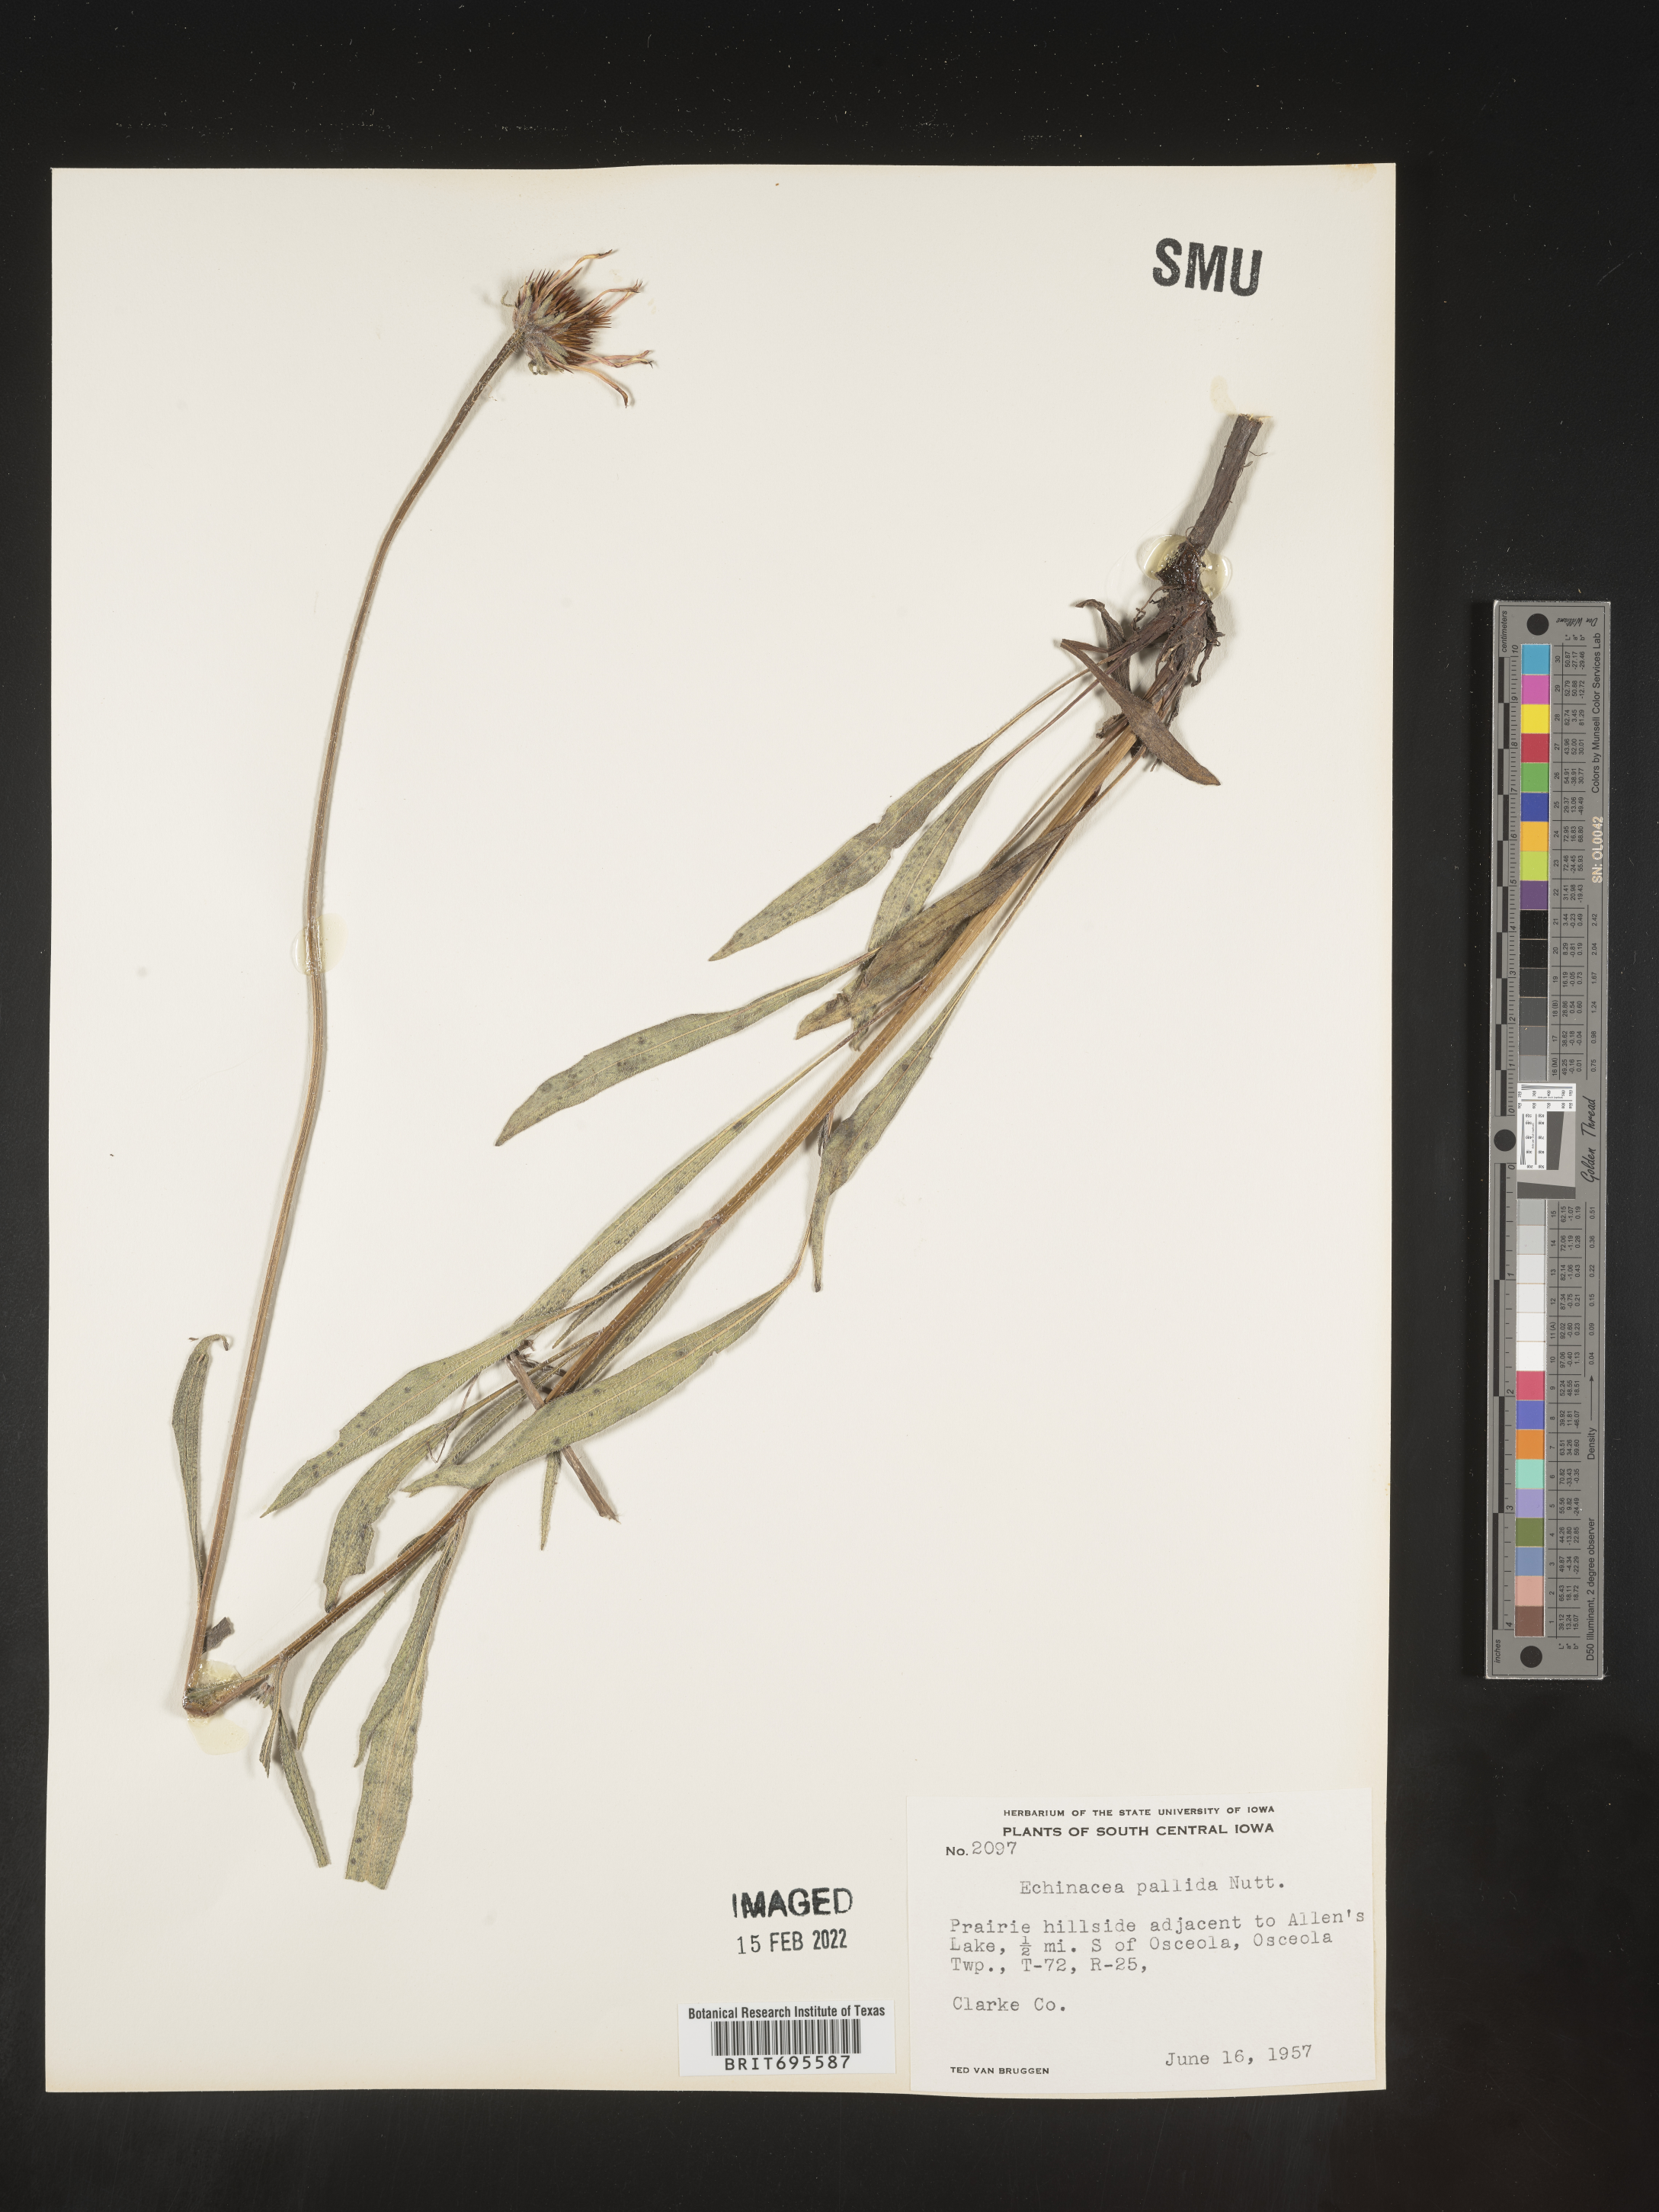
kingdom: Plantae
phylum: Tracheophyta
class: Magnoliopsida
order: Asterales
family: Asteraceae
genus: Echinacea
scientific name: Echinacea pallida
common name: Pale echinacea
